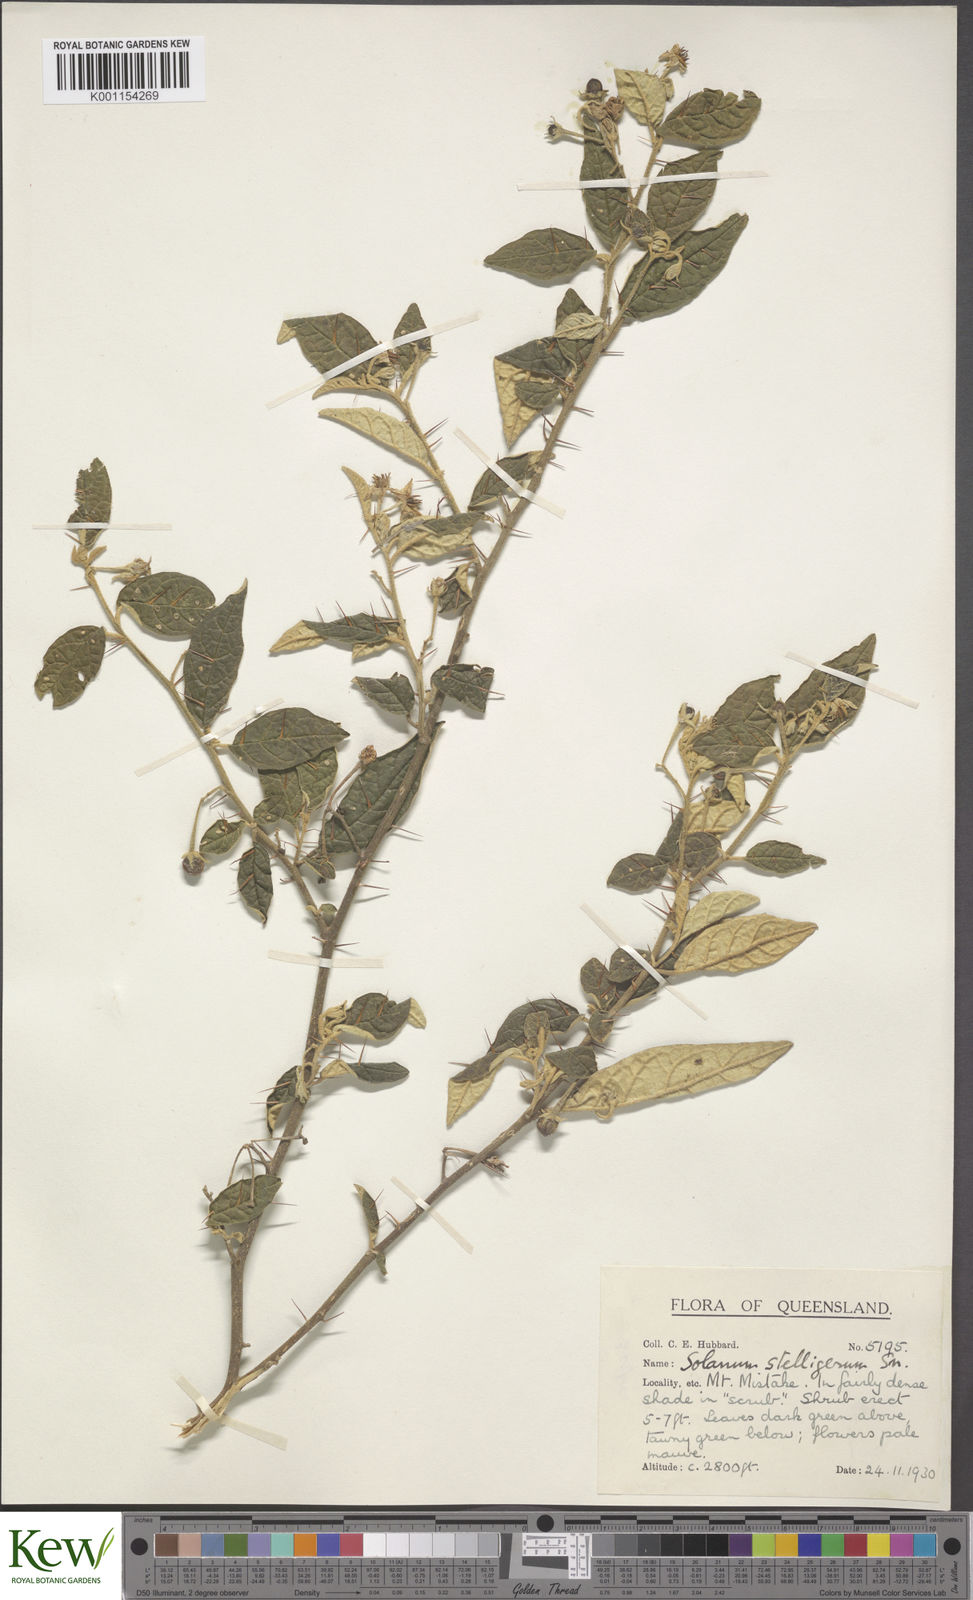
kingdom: Plantae
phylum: Tracheophyta
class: Magnoliopsida
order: Solanales
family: Solanaceae
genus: Solanum
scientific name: Solanum stelligerum
